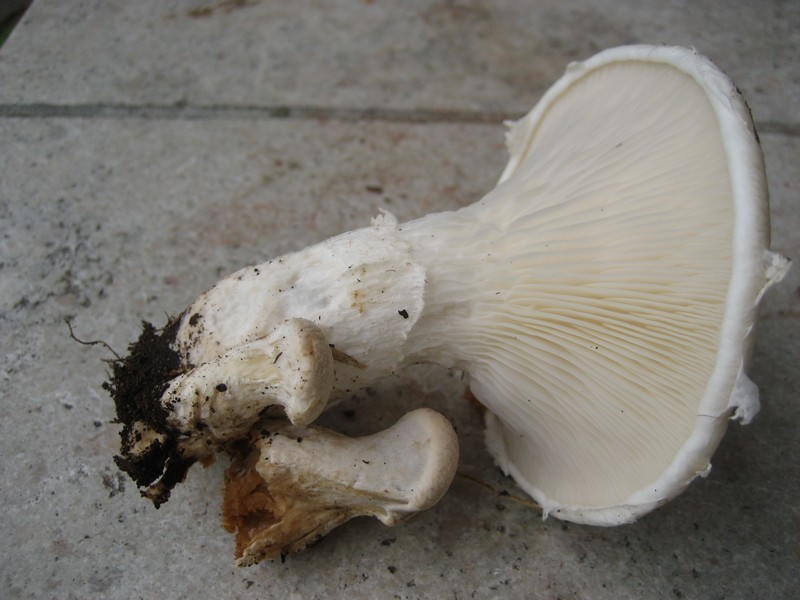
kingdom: Fungi
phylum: Basidiomycota
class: Agaricomycetes
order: Agaricales
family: Pleurotaceae
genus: Pleurotus
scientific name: Pleurotus dryinus
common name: korkagtig østershat
